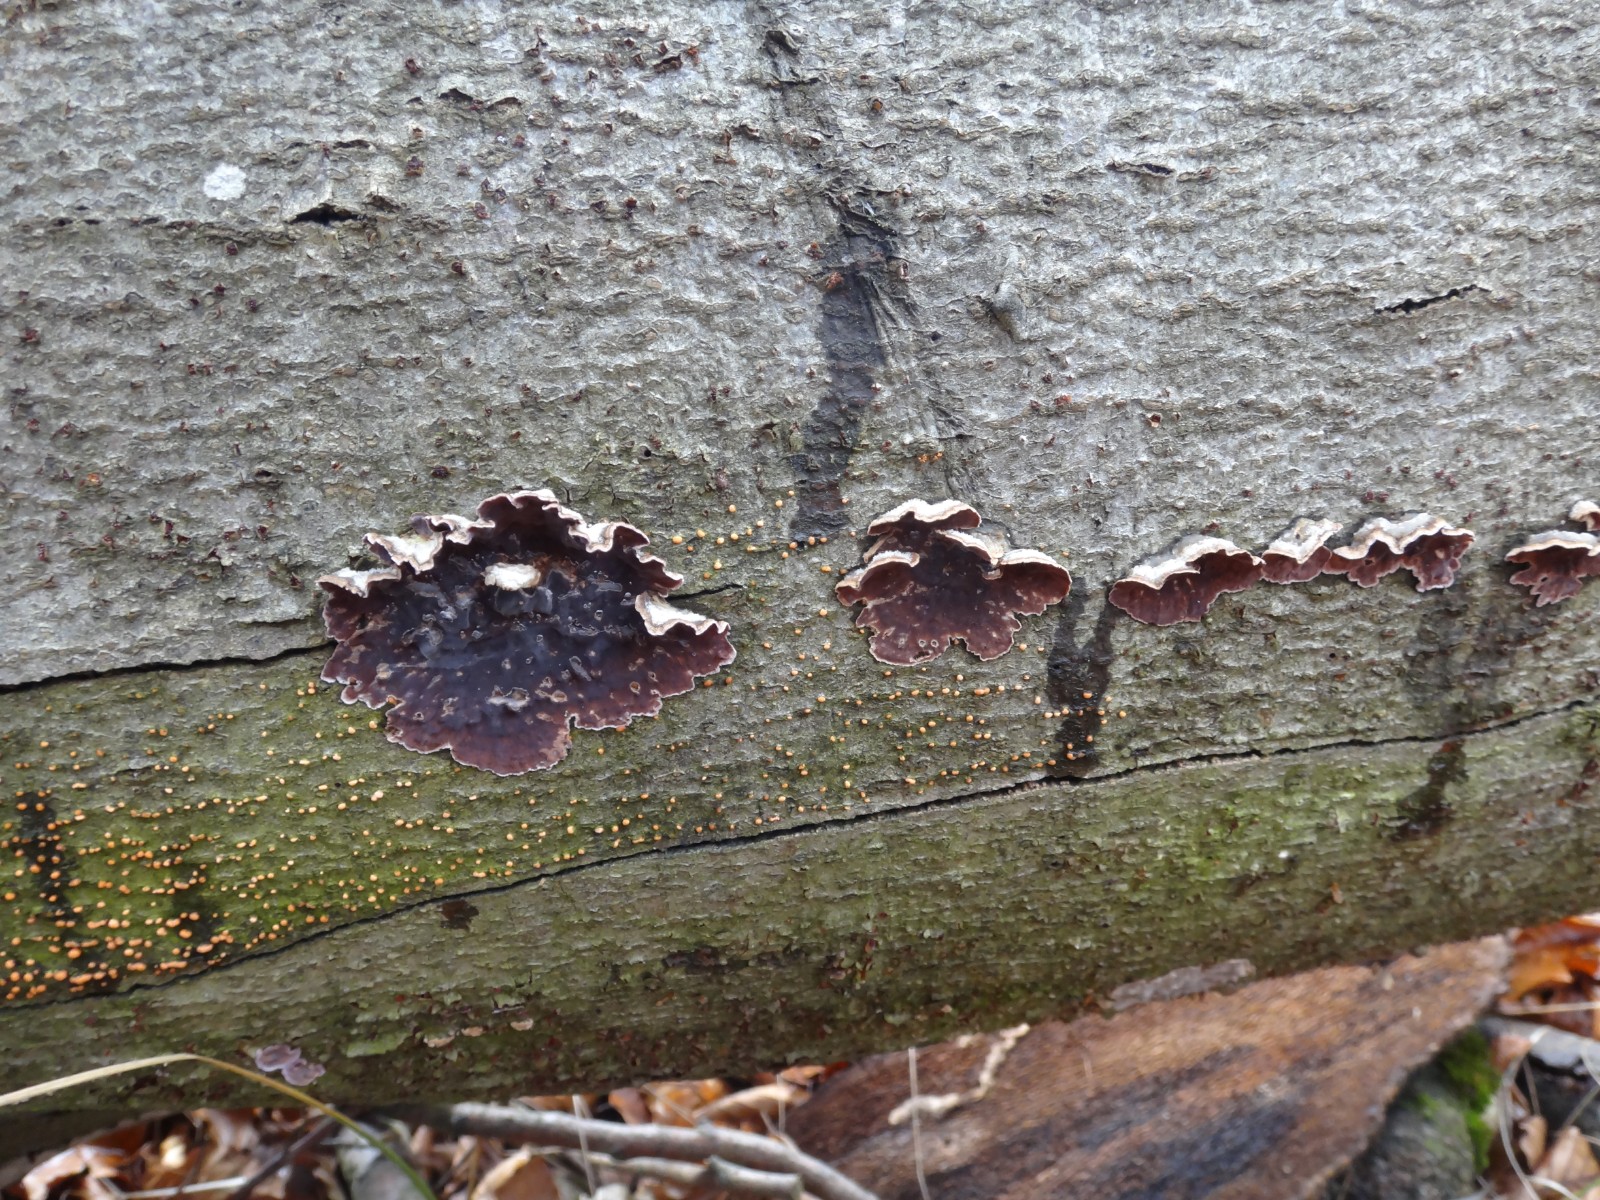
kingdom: Fungi
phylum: Basidiomycota
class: Agaricomycetes
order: Agaricales
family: Cyphellaceae
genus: Chondrostereum
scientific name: Chondrostereum purpureum
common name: purpurlædersvamp
